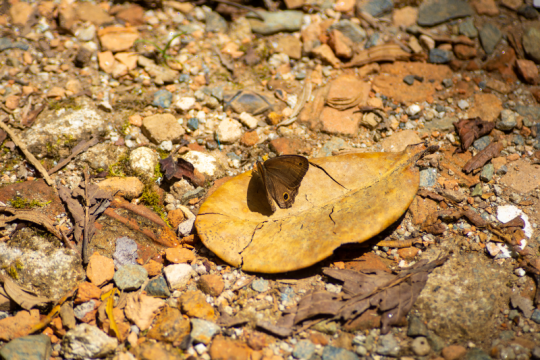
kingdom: Animalia
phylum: Arthropoda
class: Insecta
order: Lepidoptera
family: Nymphalidae
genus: Graphita
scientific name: Graphita griphe
